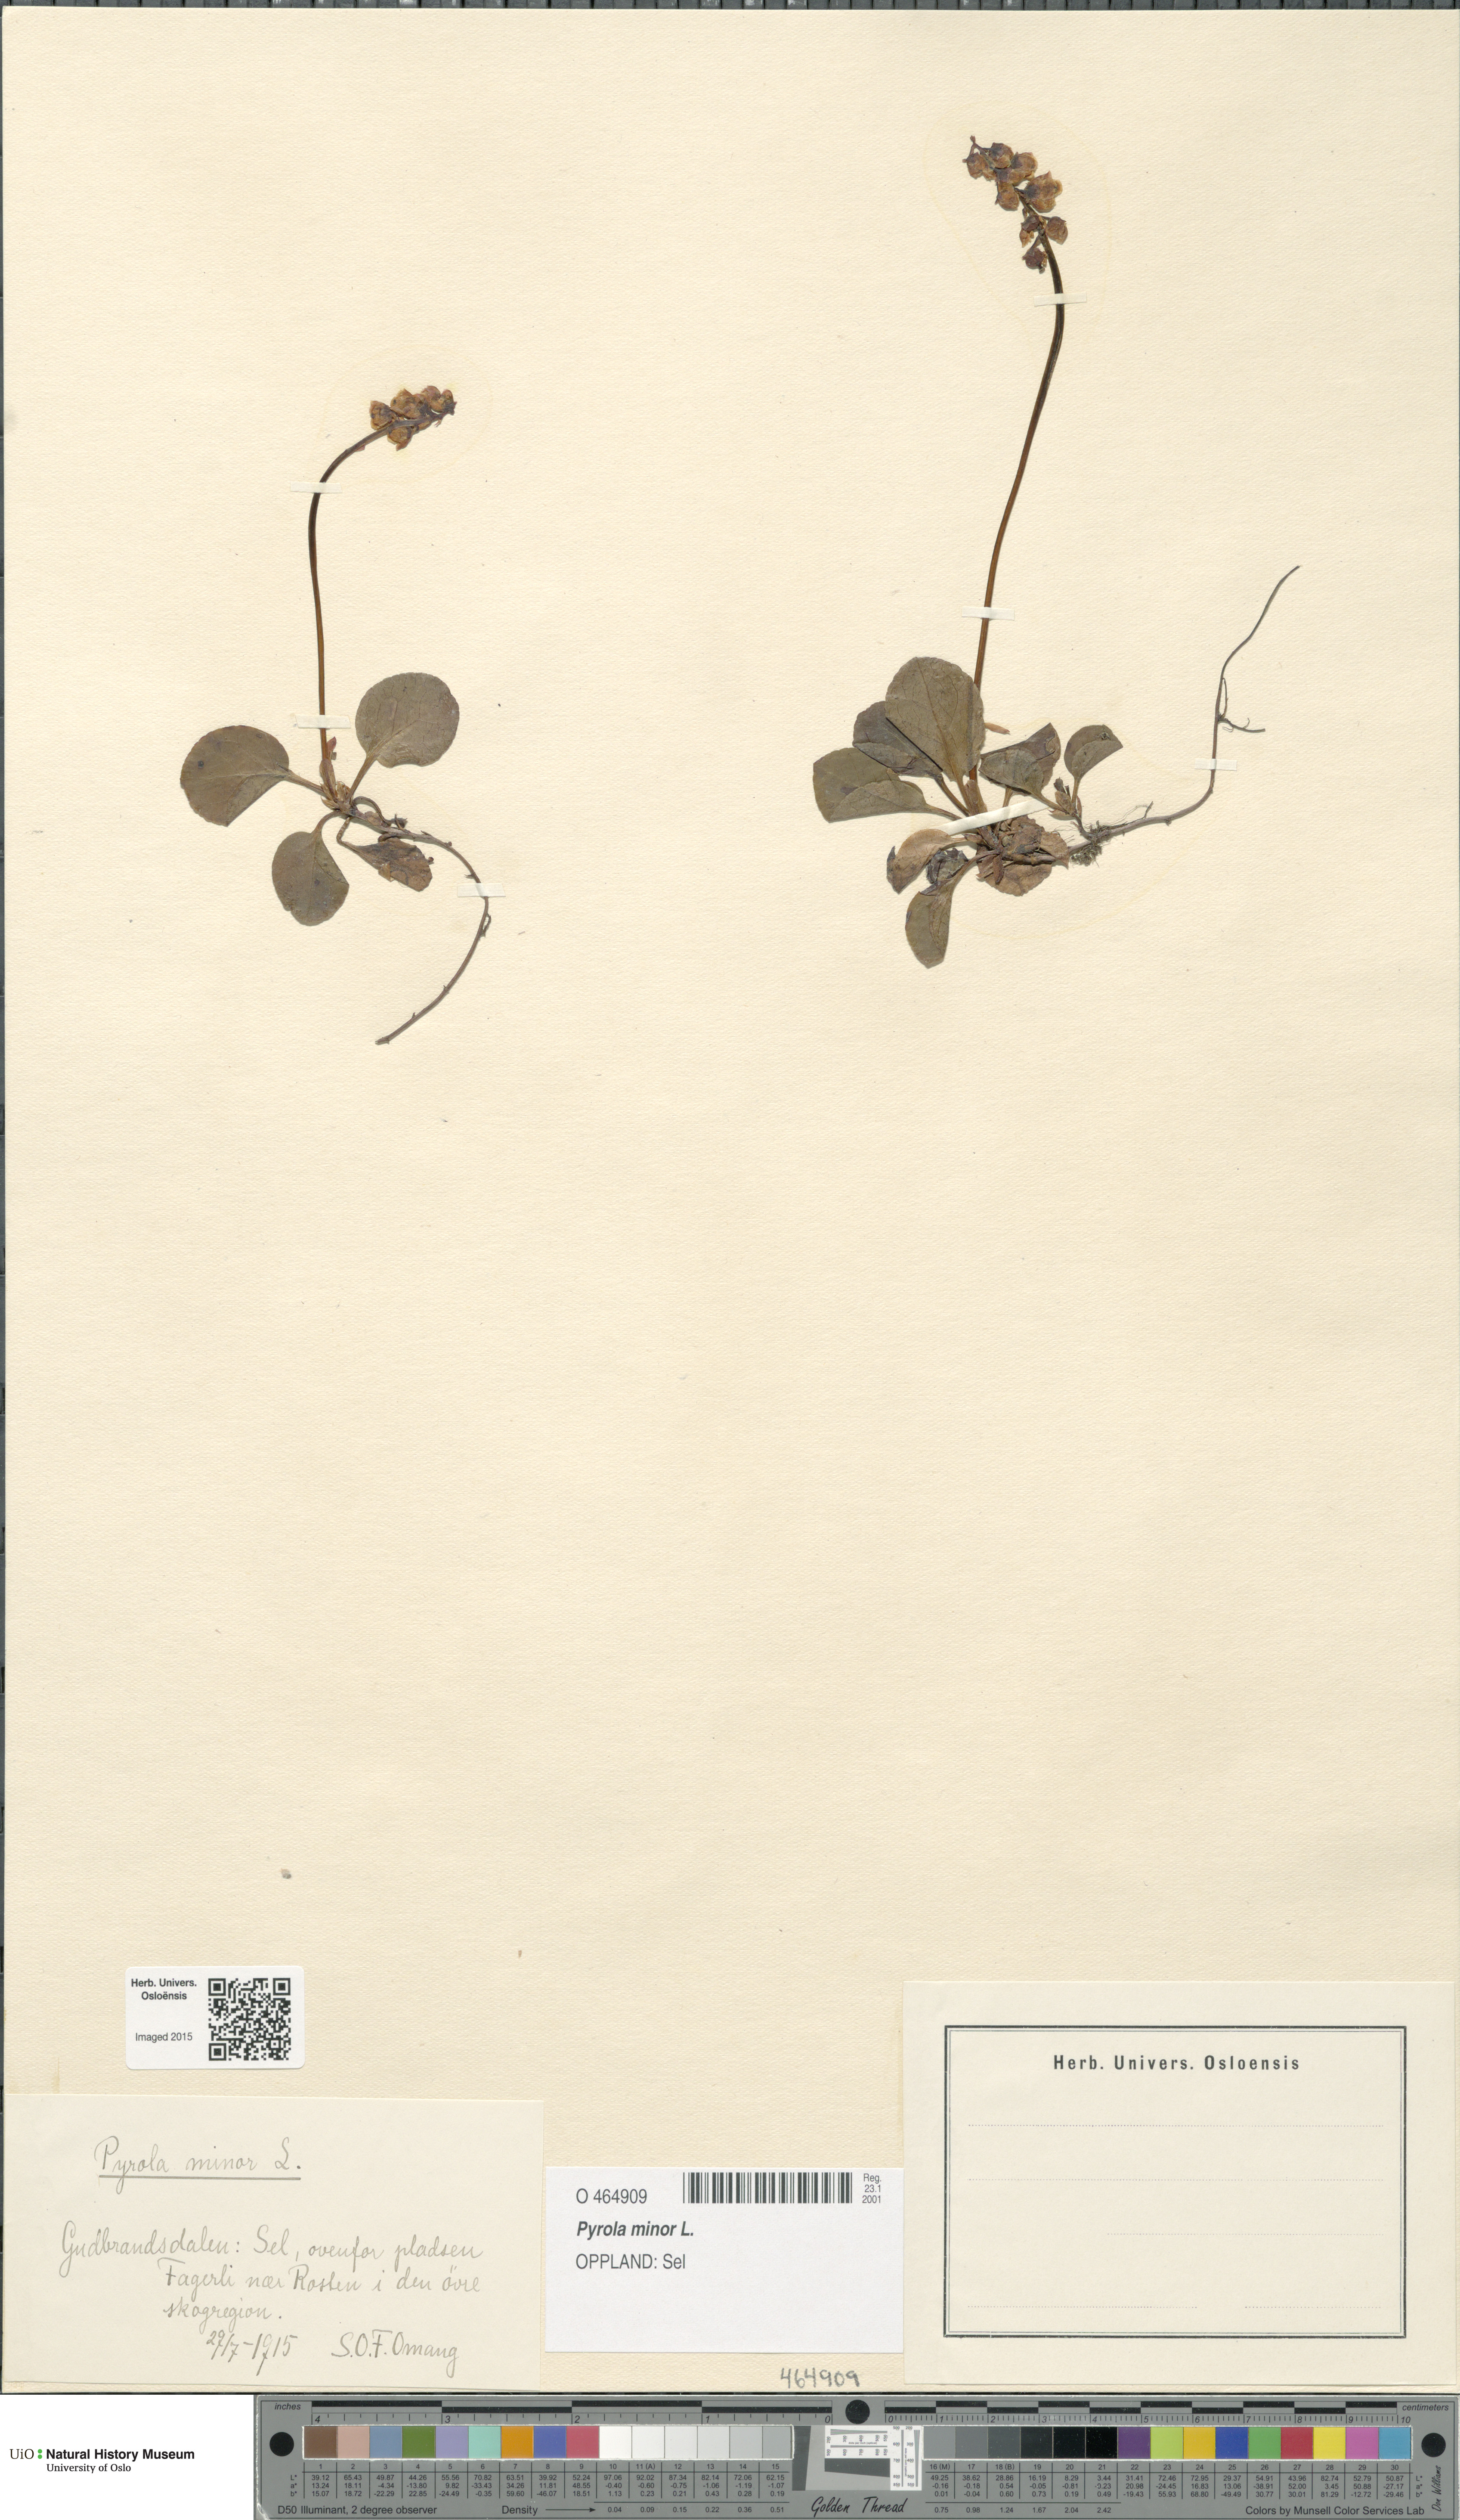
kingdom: Plantae
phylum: Tracheophyta
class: Magnoliopsida
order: Ericales
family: Ericaceae
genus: Pyrola
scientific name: Pyrola minor
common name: Common wintergreen
